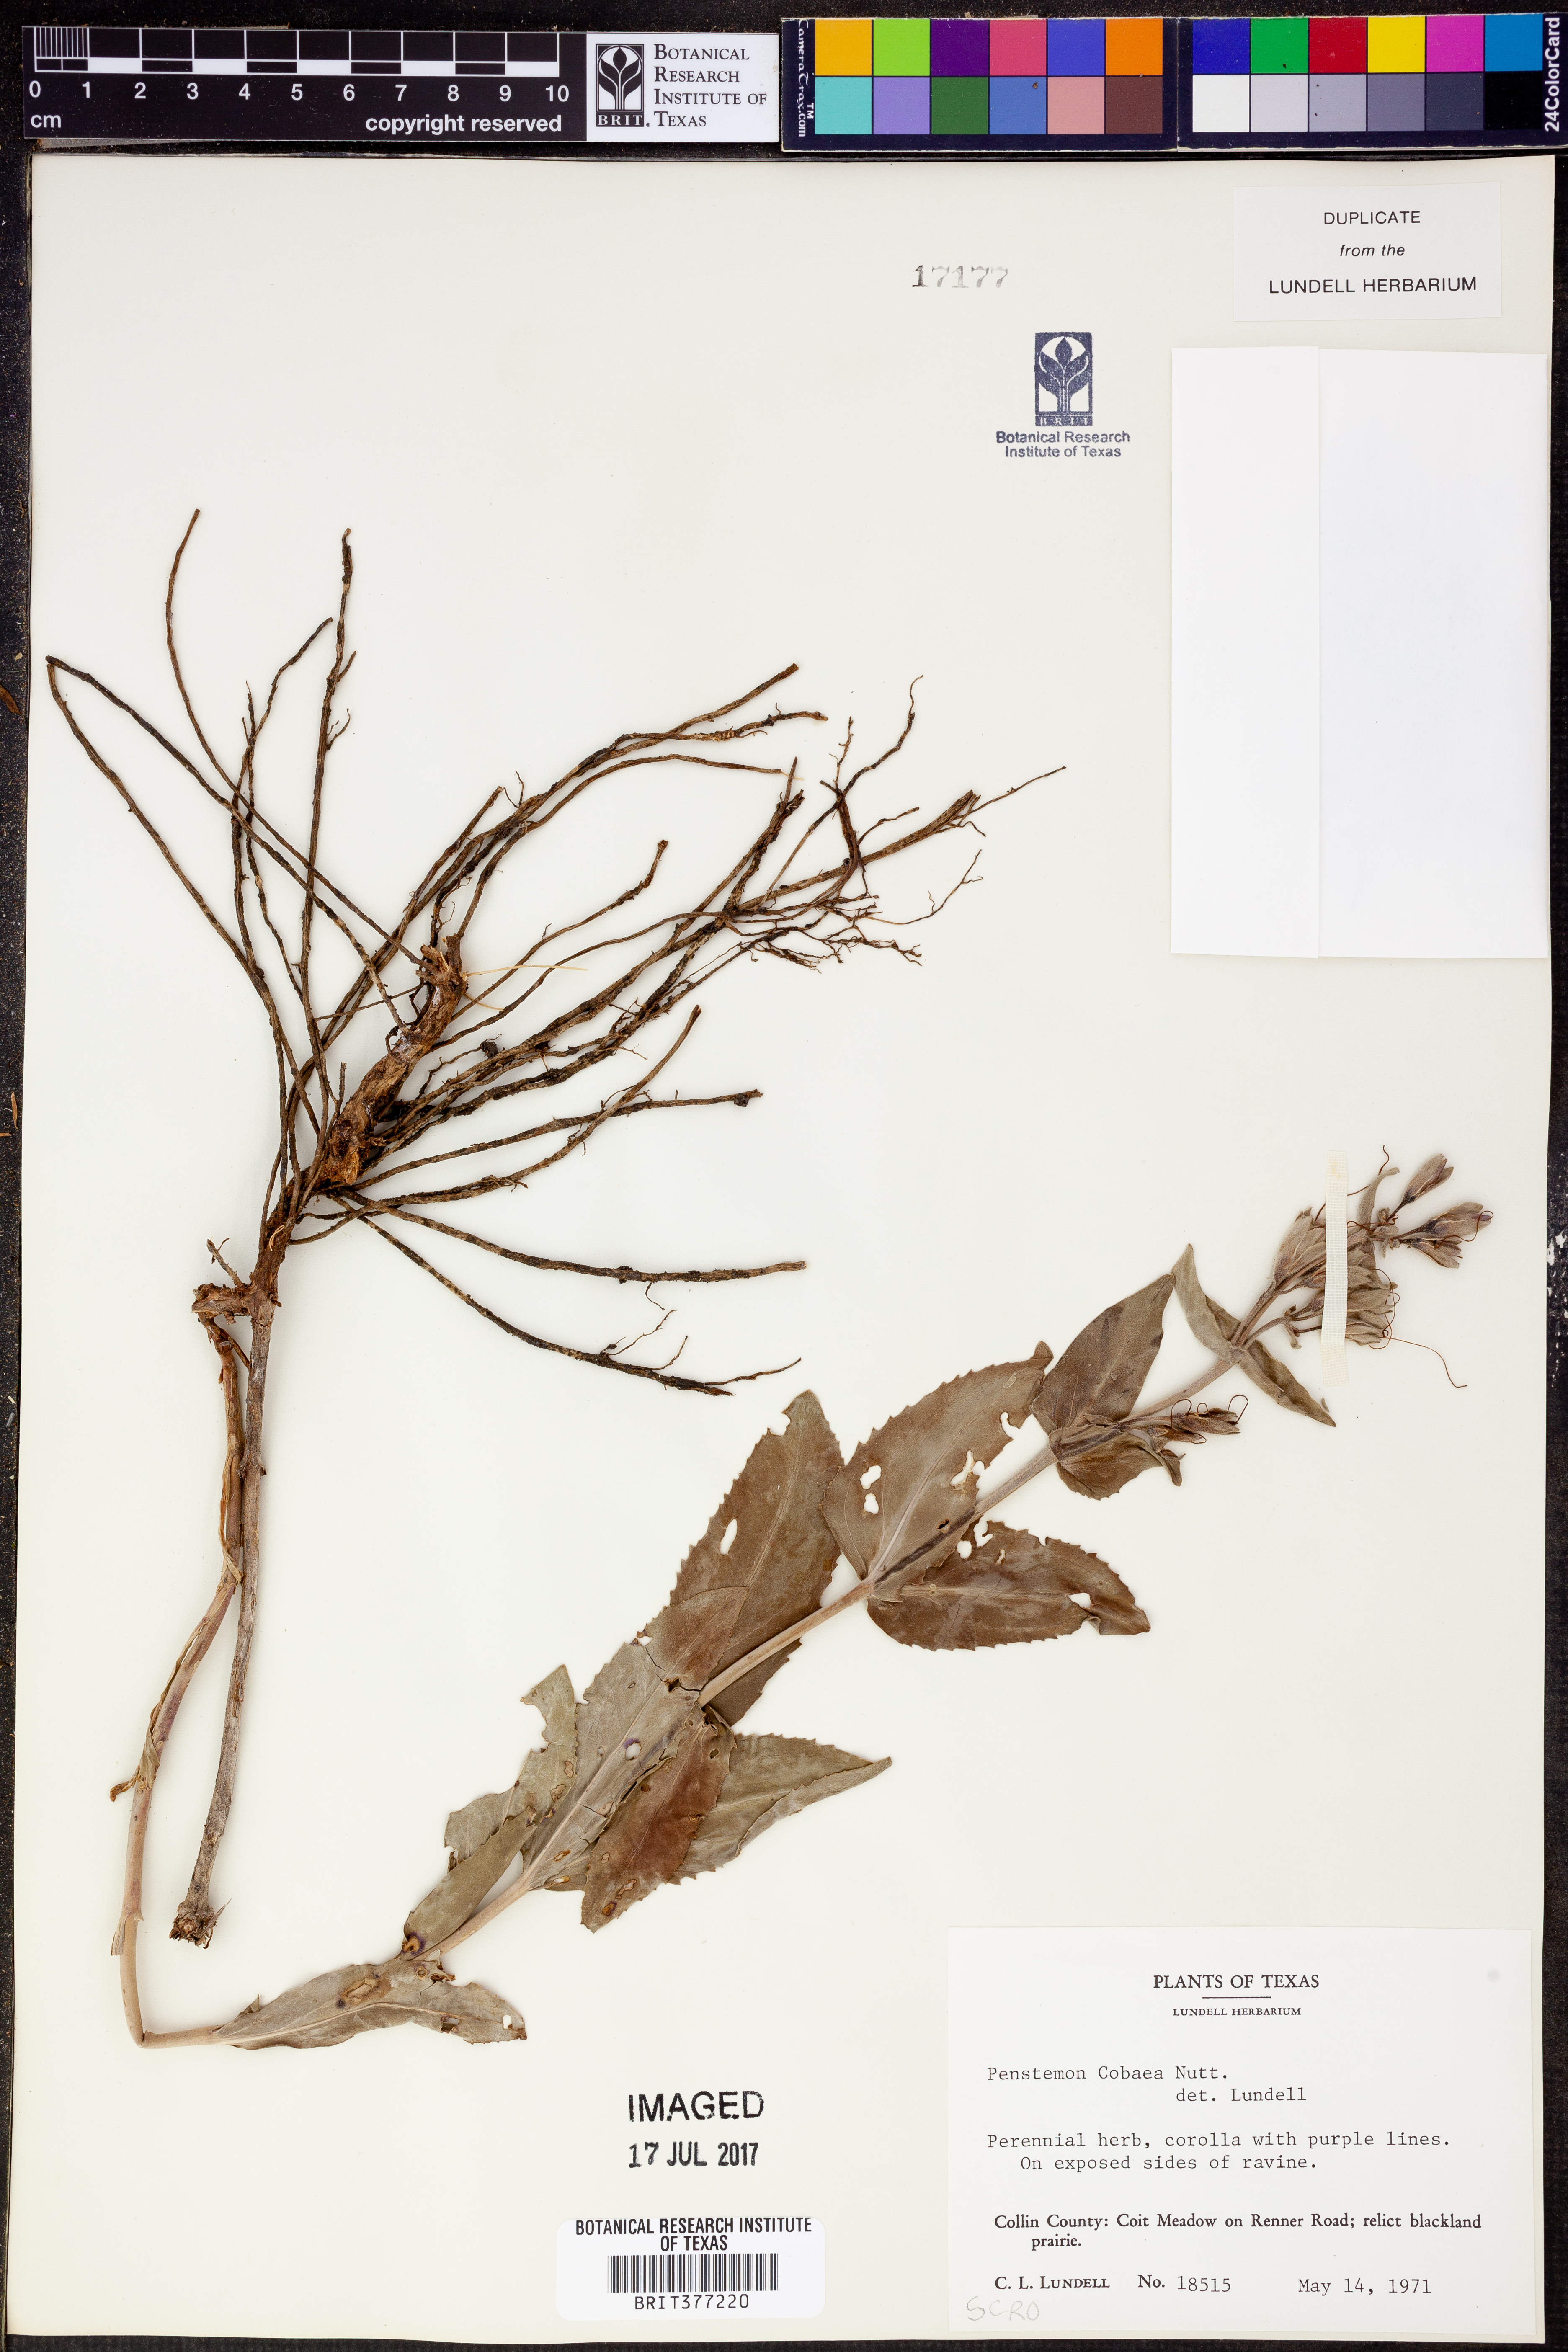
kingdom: Plantae
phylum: Tracheophyta
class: Magnoliopsida
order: Lamiales
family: Plantaginaceae
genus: Penstemon
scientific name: Penstemon cobaea
